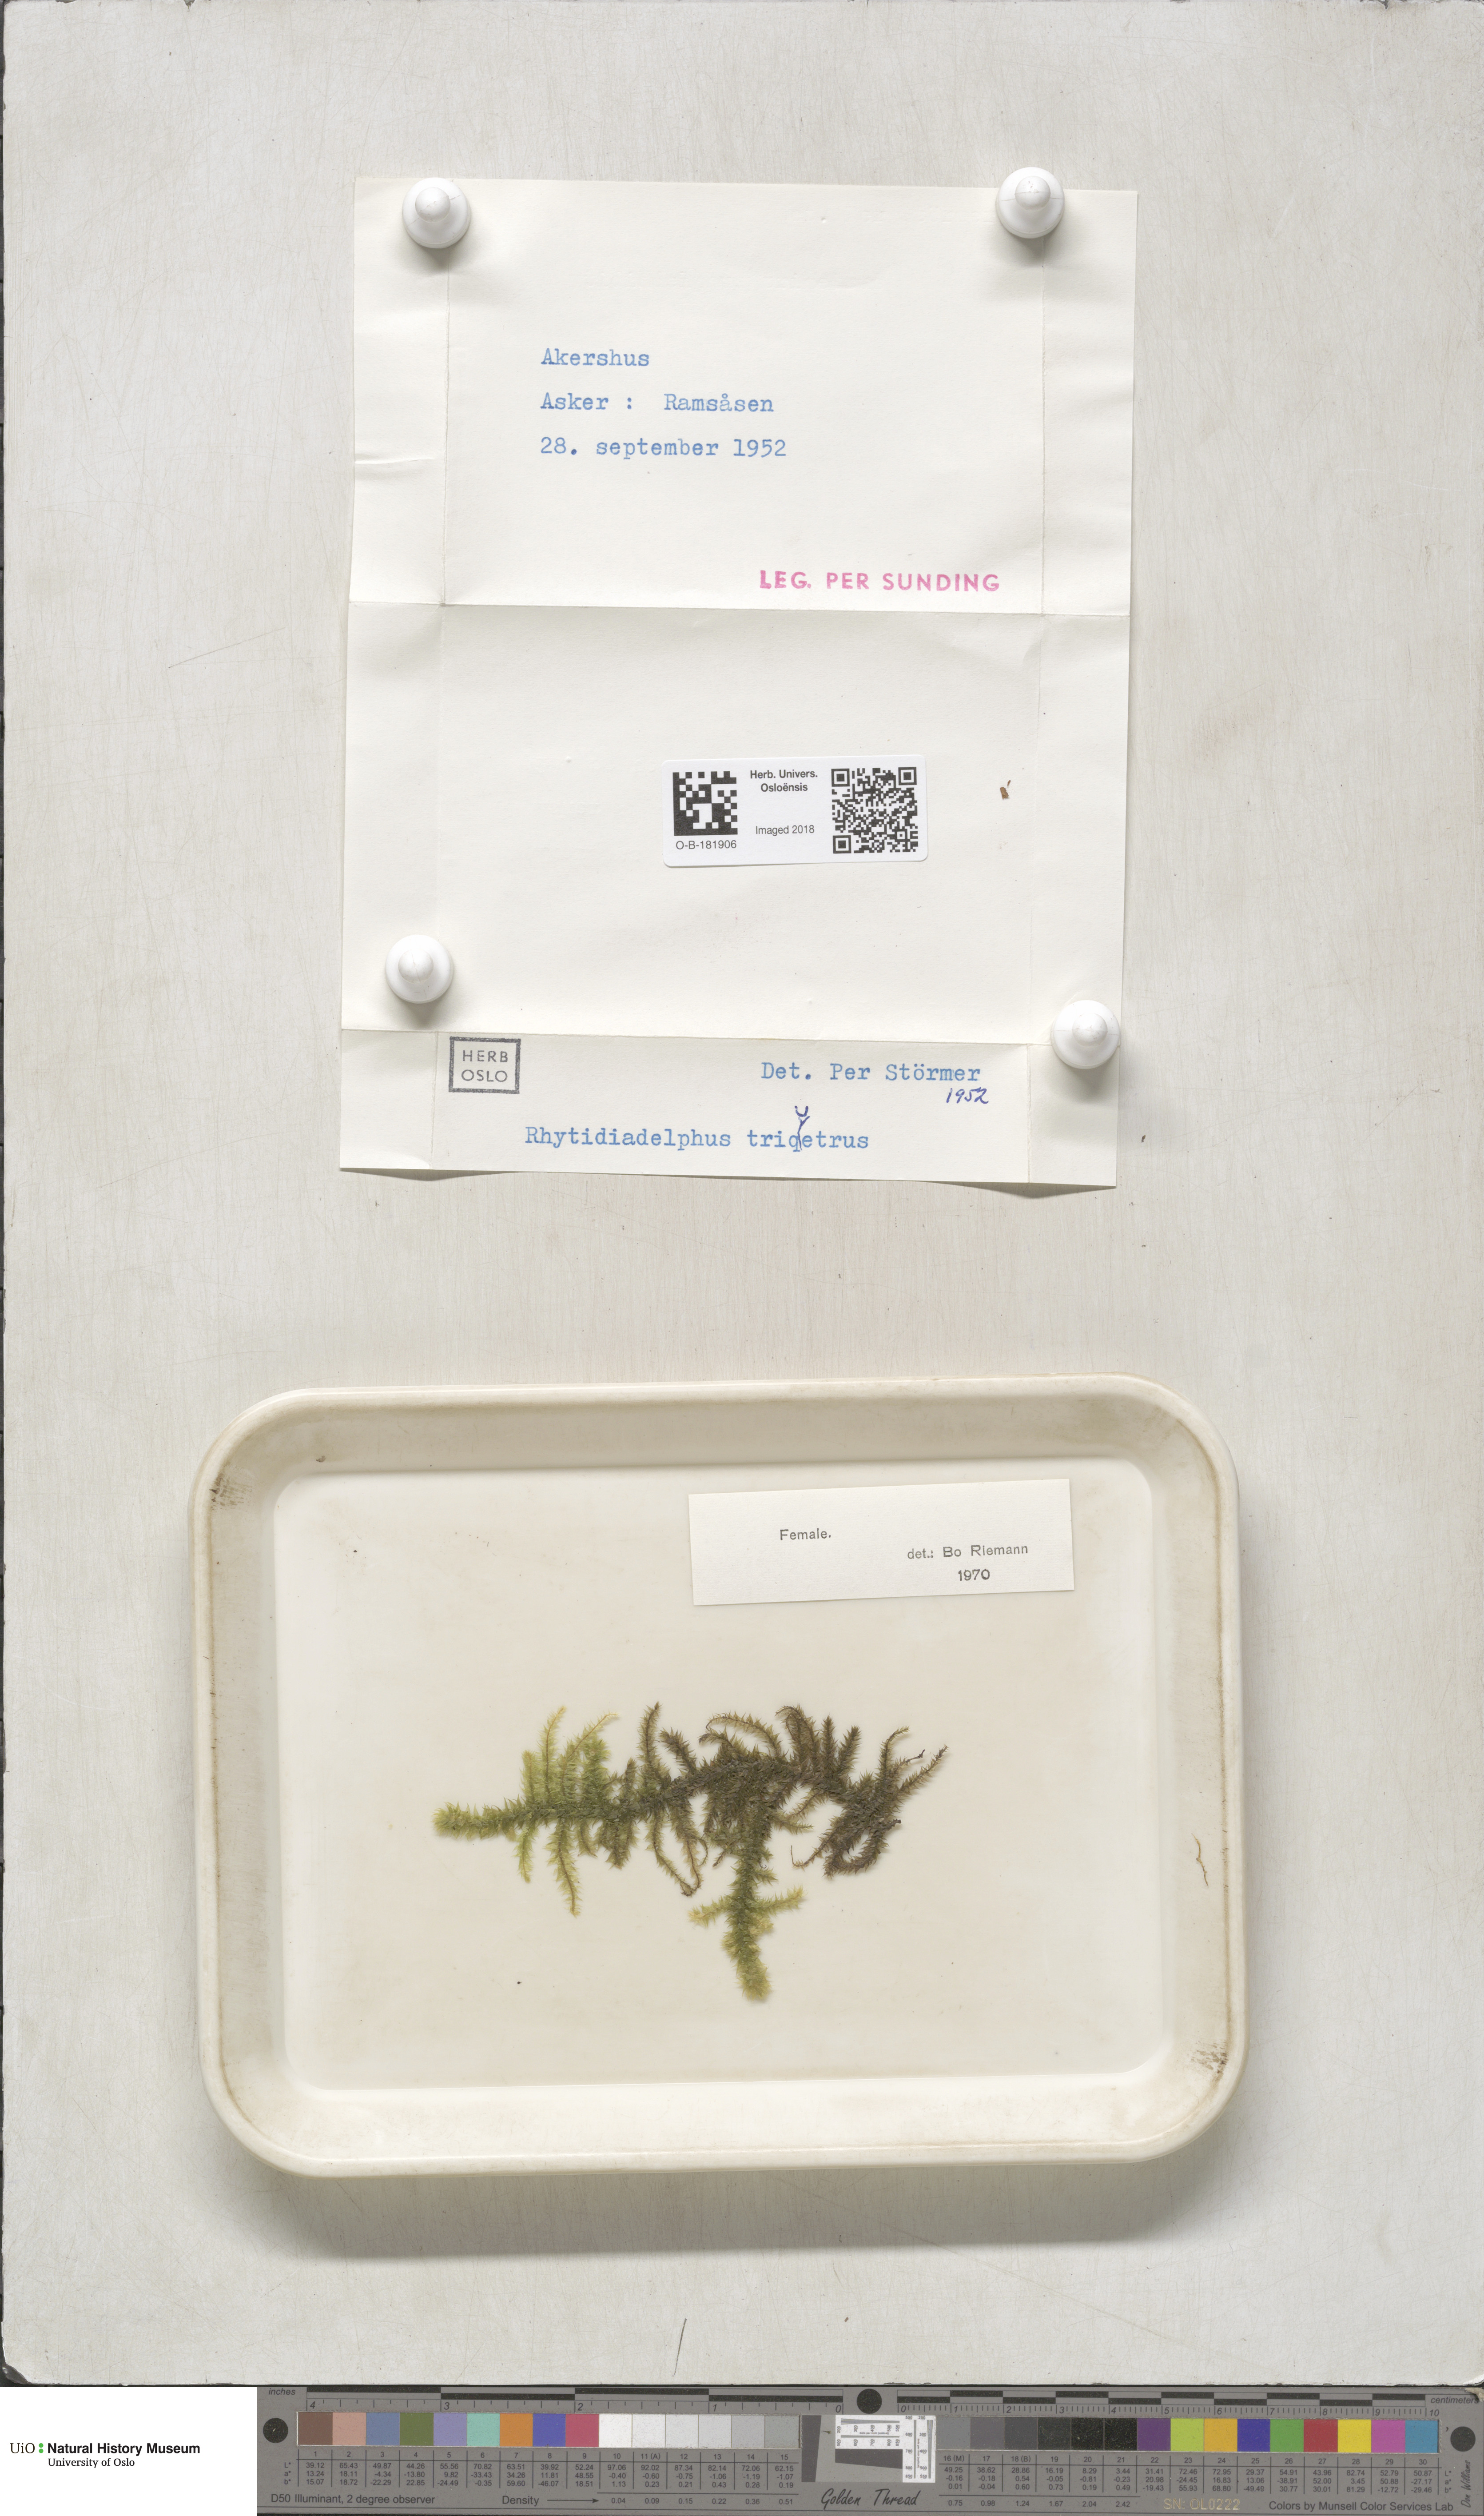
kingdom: Plantae
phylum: Bryophyta
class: Bryopsida
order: Hypnales
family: Hylocomiaceae
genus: Hylocomiadelphus
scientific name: Hylocomiadelphus triquetrus
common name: Rough goose neck moss
